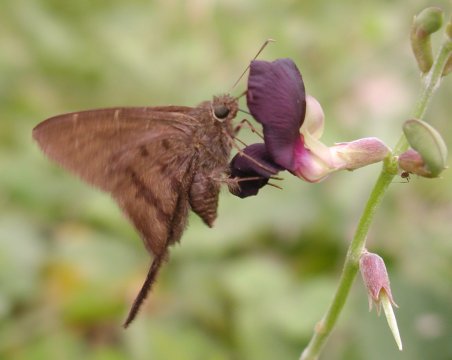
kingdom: Animalia
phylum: Arthropoda
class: Insecta
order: Lepidoptera
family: Hesperiidae
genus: Urbanus
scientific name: Urbanus simplicius
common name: Plain Longtail
